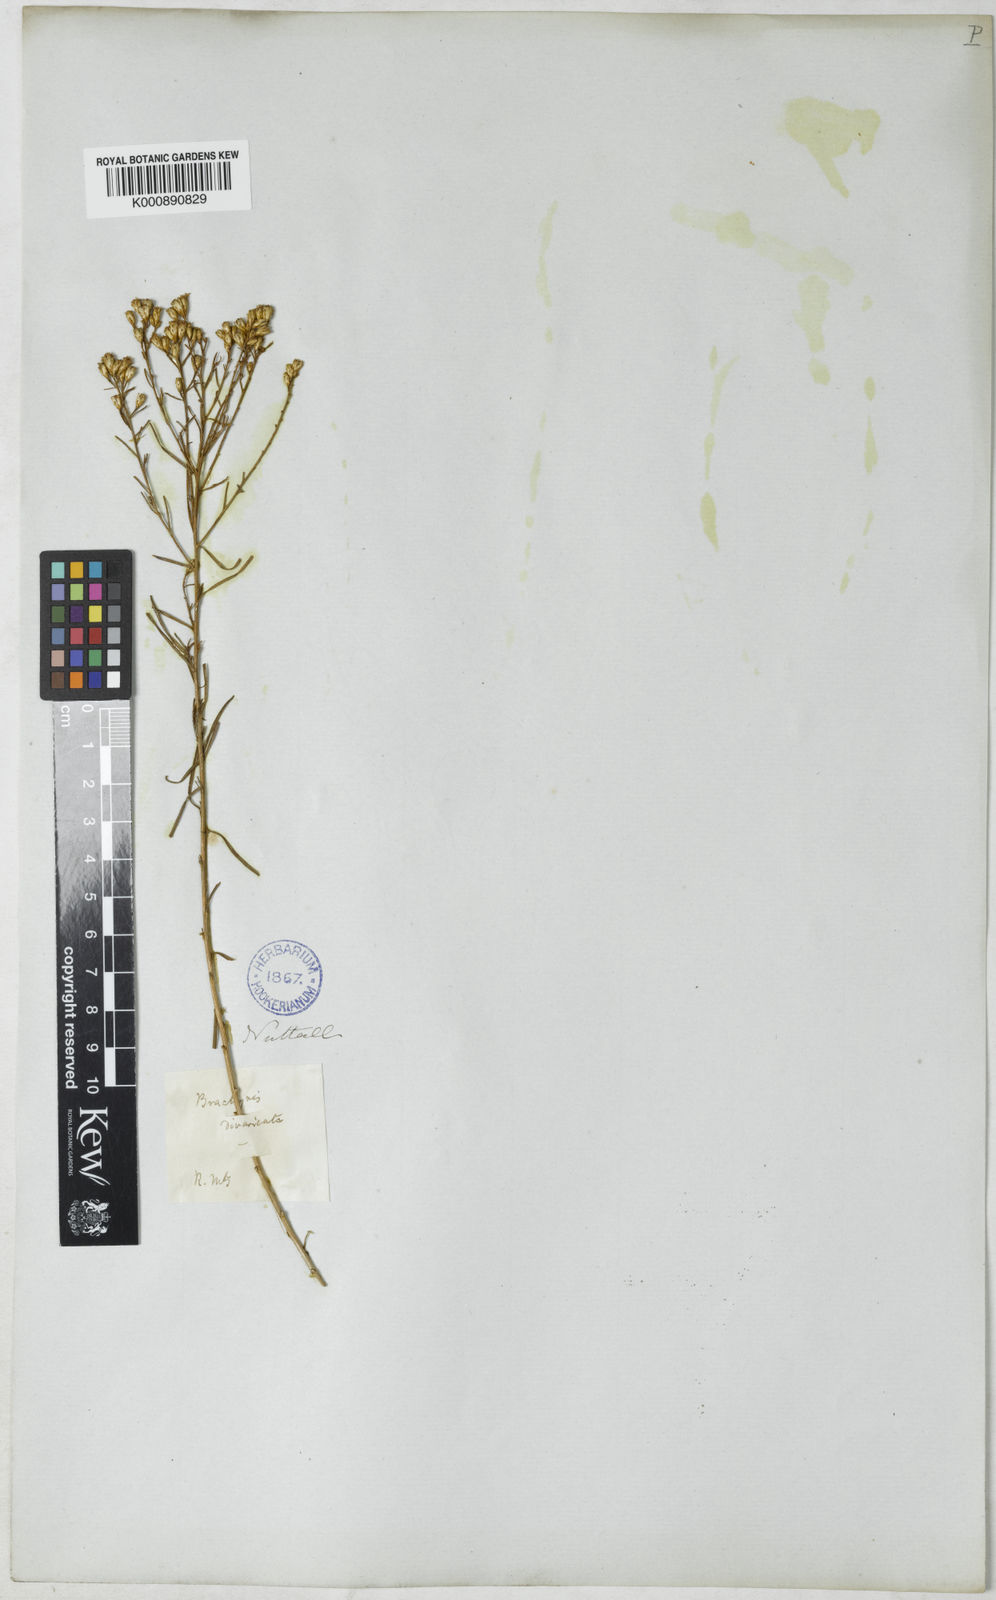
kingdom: Plantae
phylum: Tracheophyta
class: Magnoliopsida
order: Asterales
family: Asteraceae
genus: Gutierrezia
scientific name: Gutierrezia sarothrae
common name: Broom snakeweed
